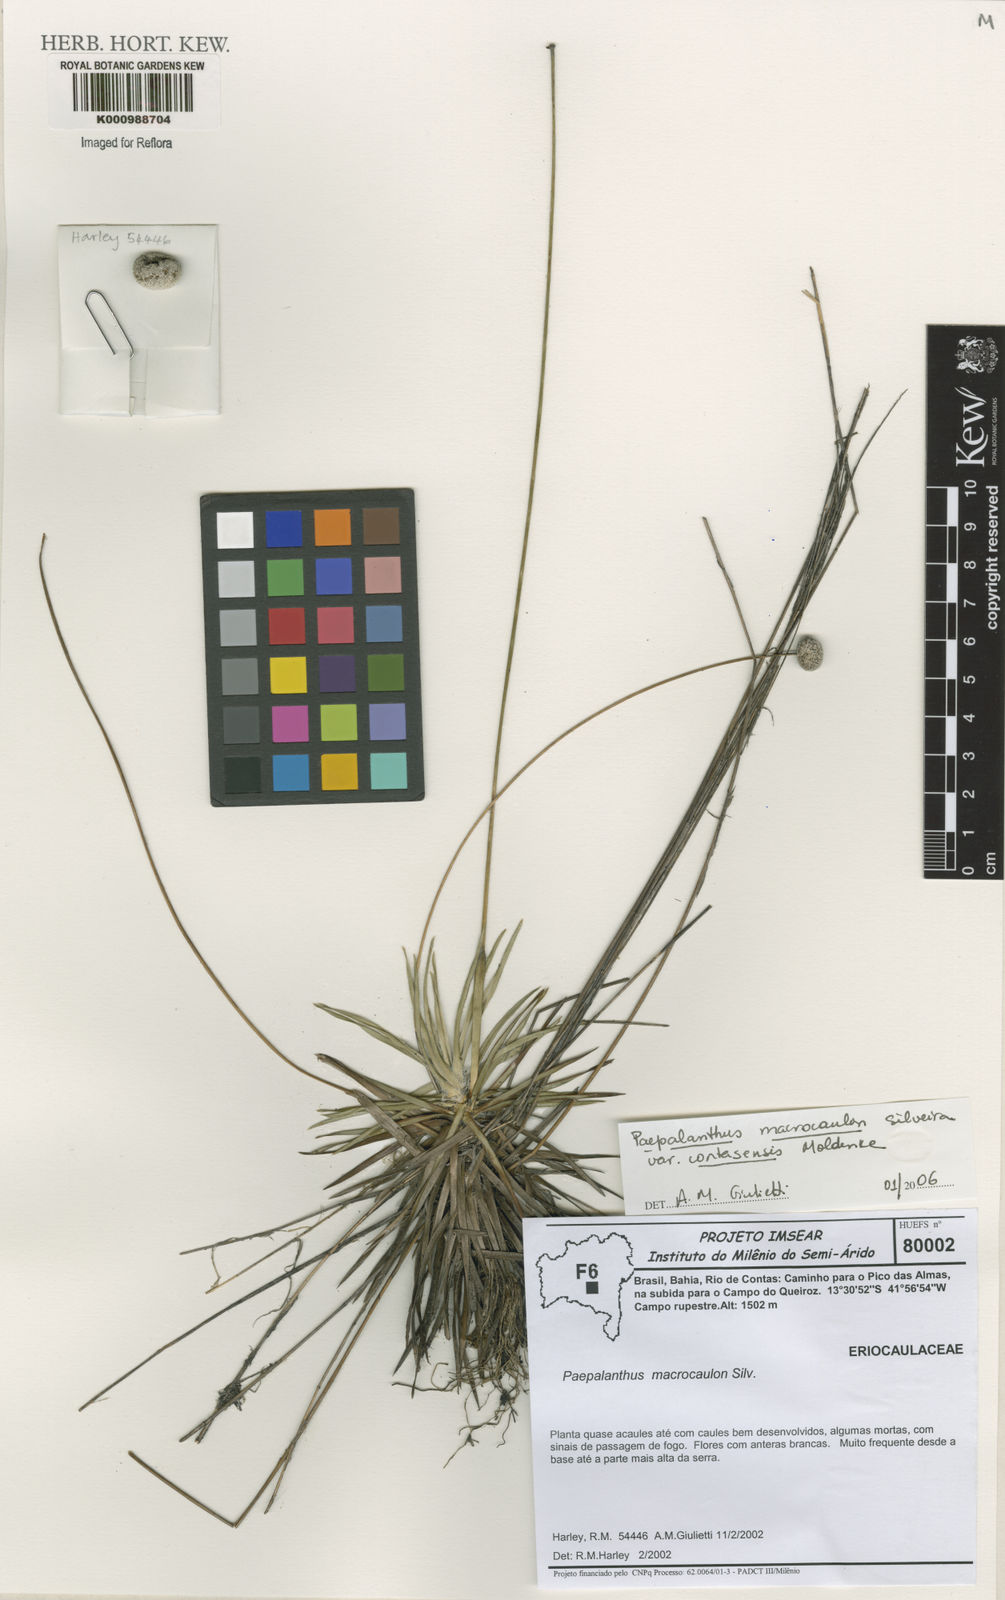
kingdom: Plantae
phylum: Tracheophyta
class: Liliopsida
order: Poales
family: Eriocaulaceae
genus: Paepalanthus
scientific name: Paepalanthus macrocaulon
